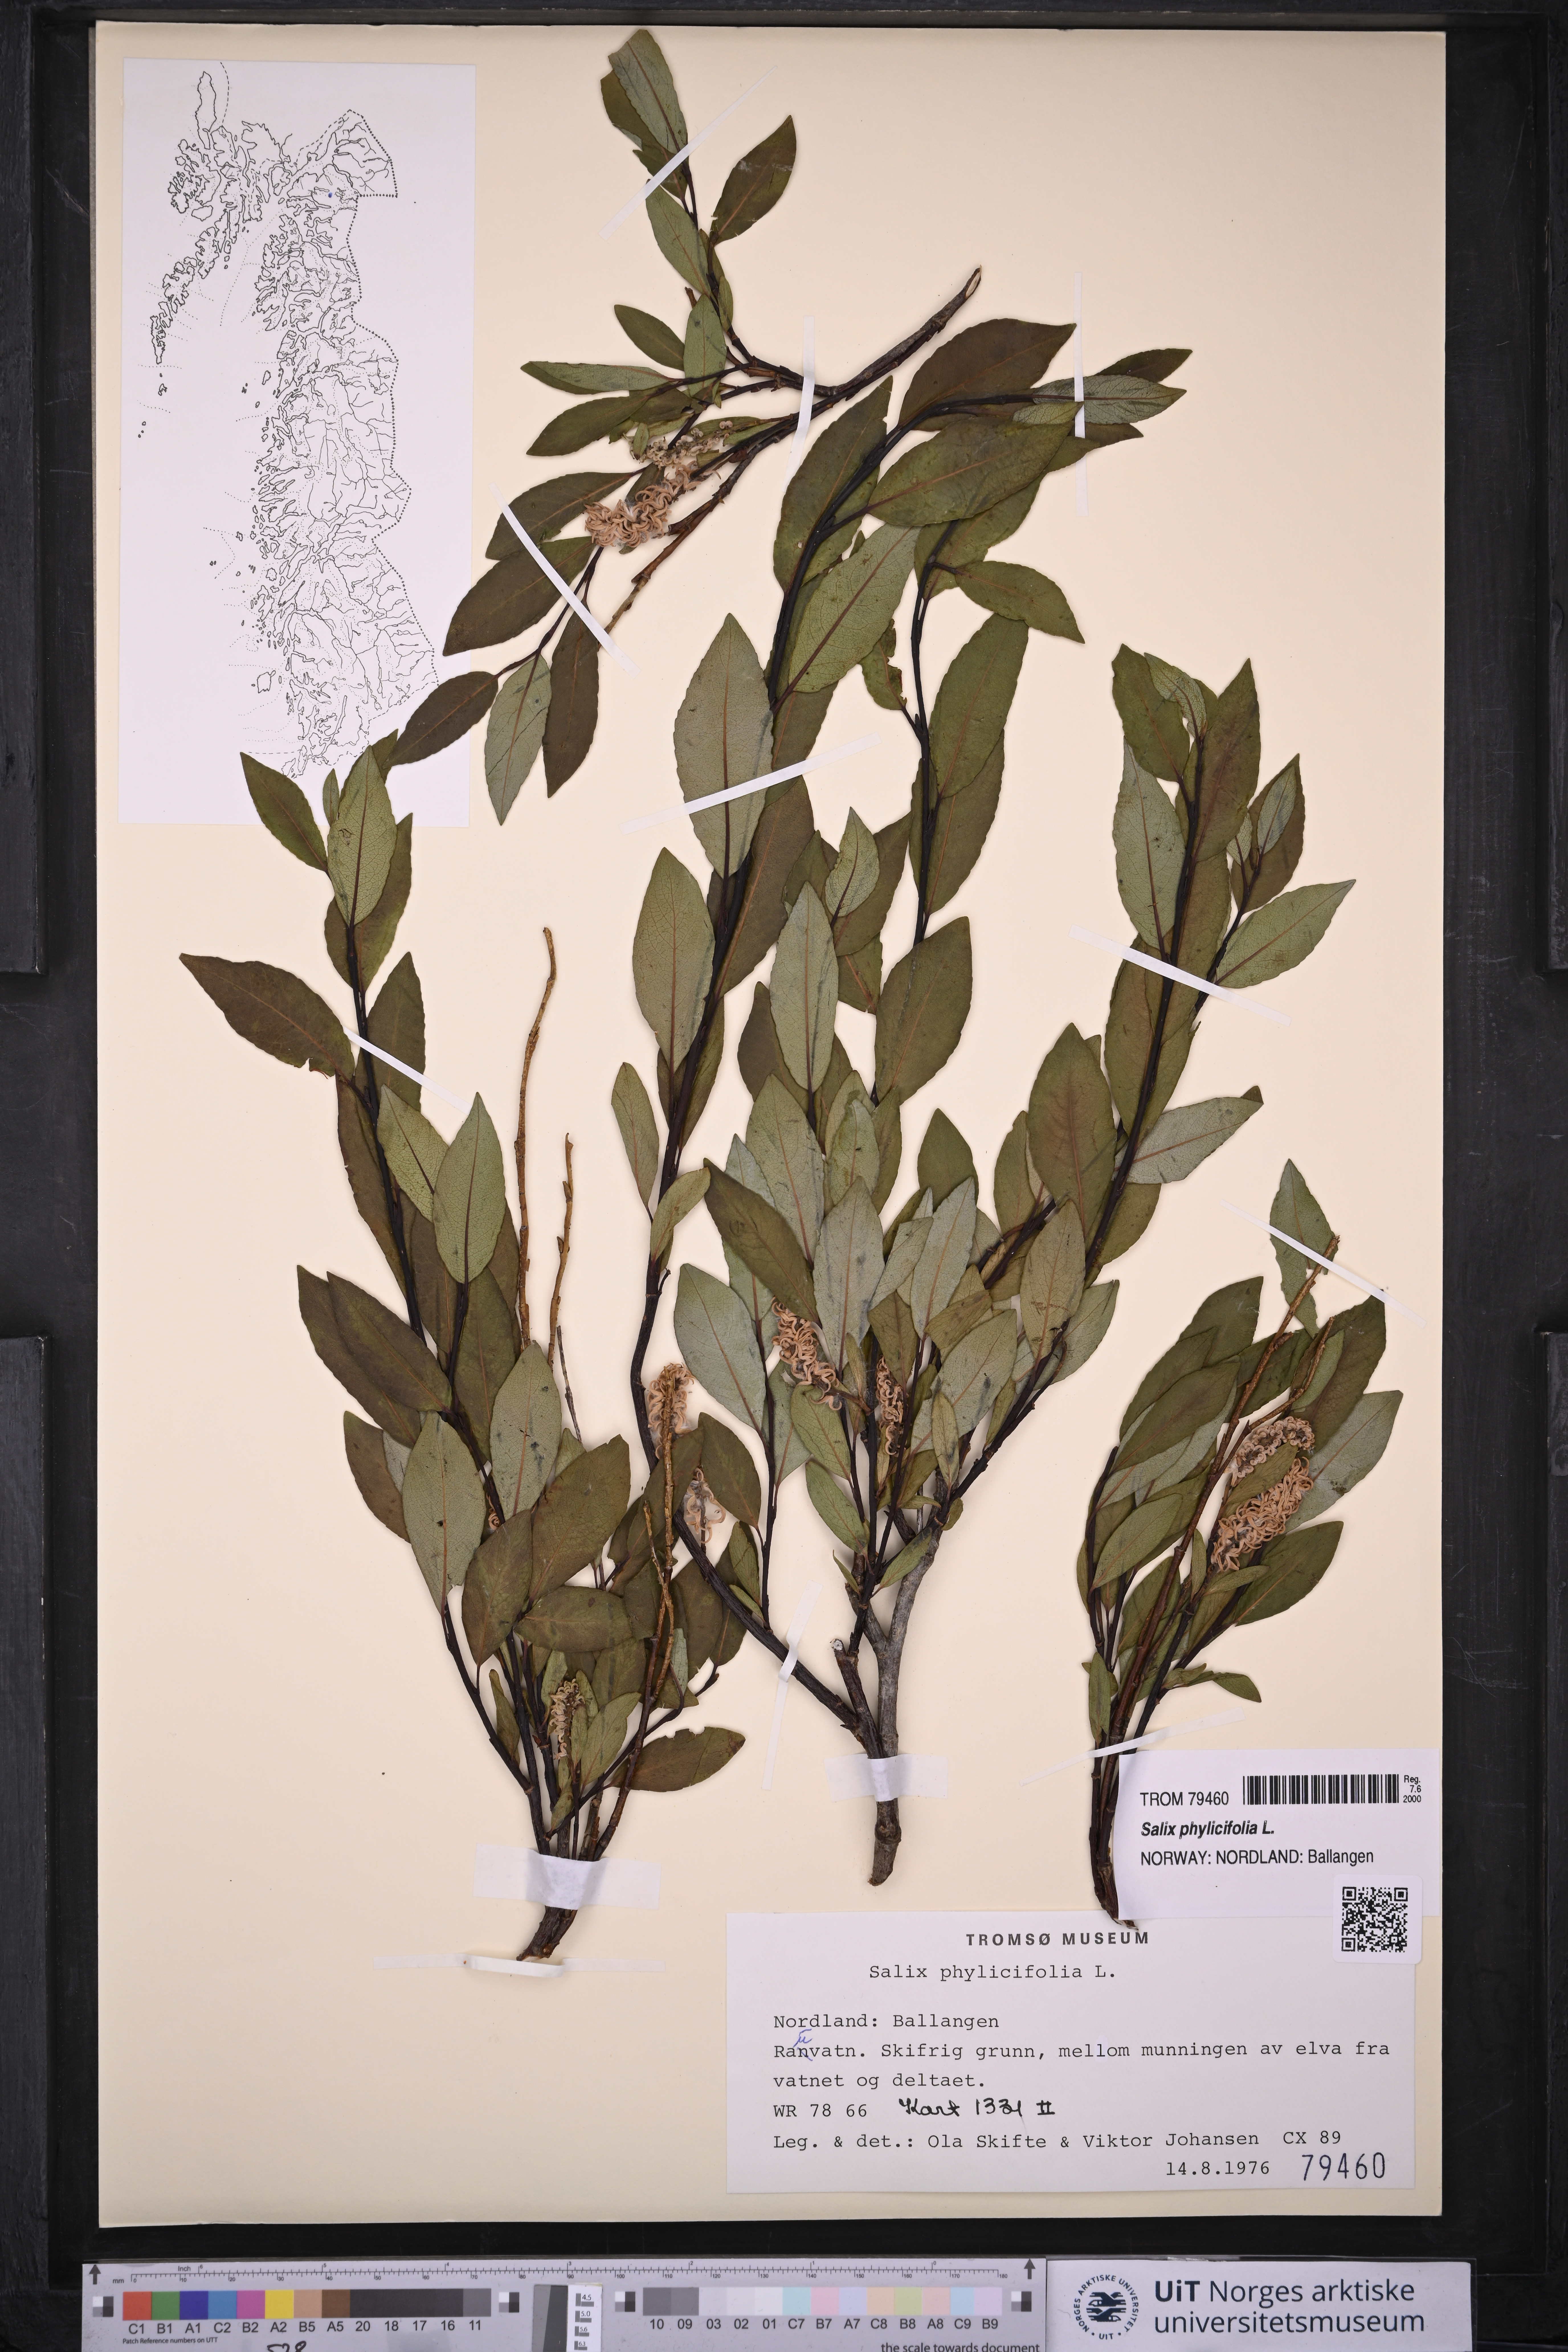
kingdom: Plantae
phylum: Tracheophyta
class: Magnoliopsida
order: Malpighiales
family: Salicaceae
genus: Salix
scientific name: Salix phylicifolia
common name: Tea-leaved willow
